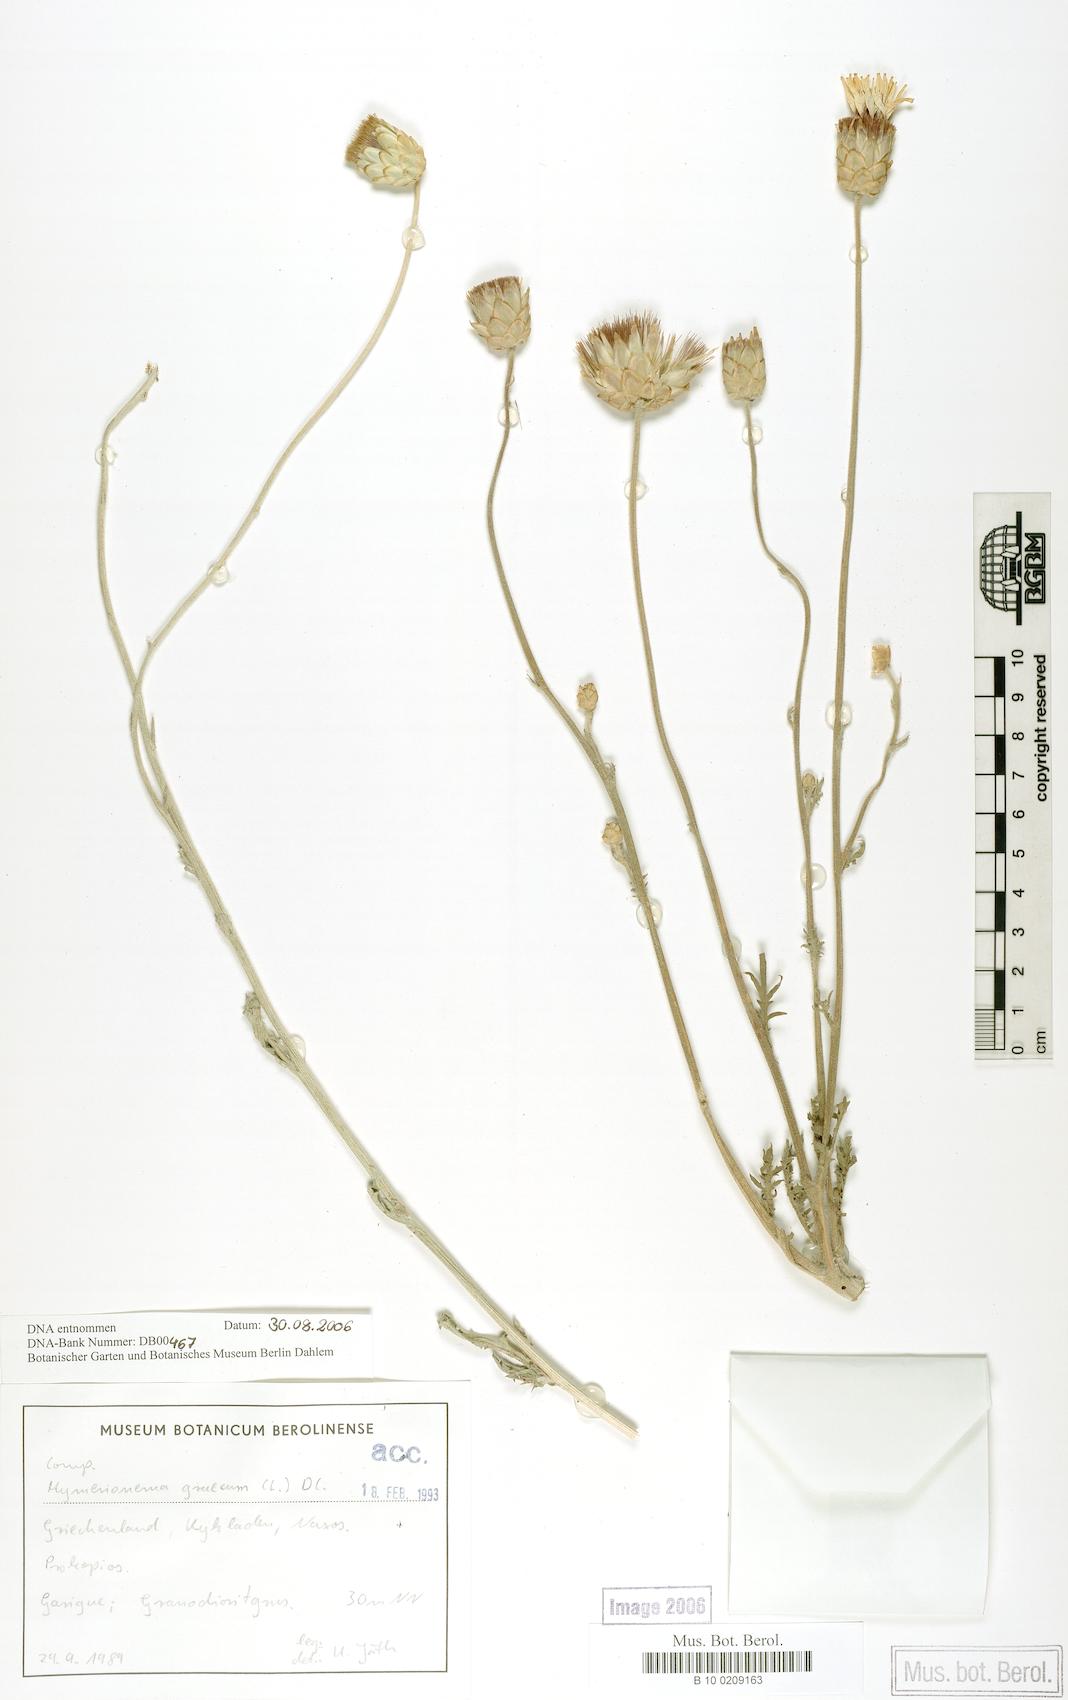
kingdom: Plantae
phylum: Tracheophyta
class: Magnoliopsida
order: Asterales
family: Asteraceae
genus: Hymenonema
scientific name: Hymenonema graecum
